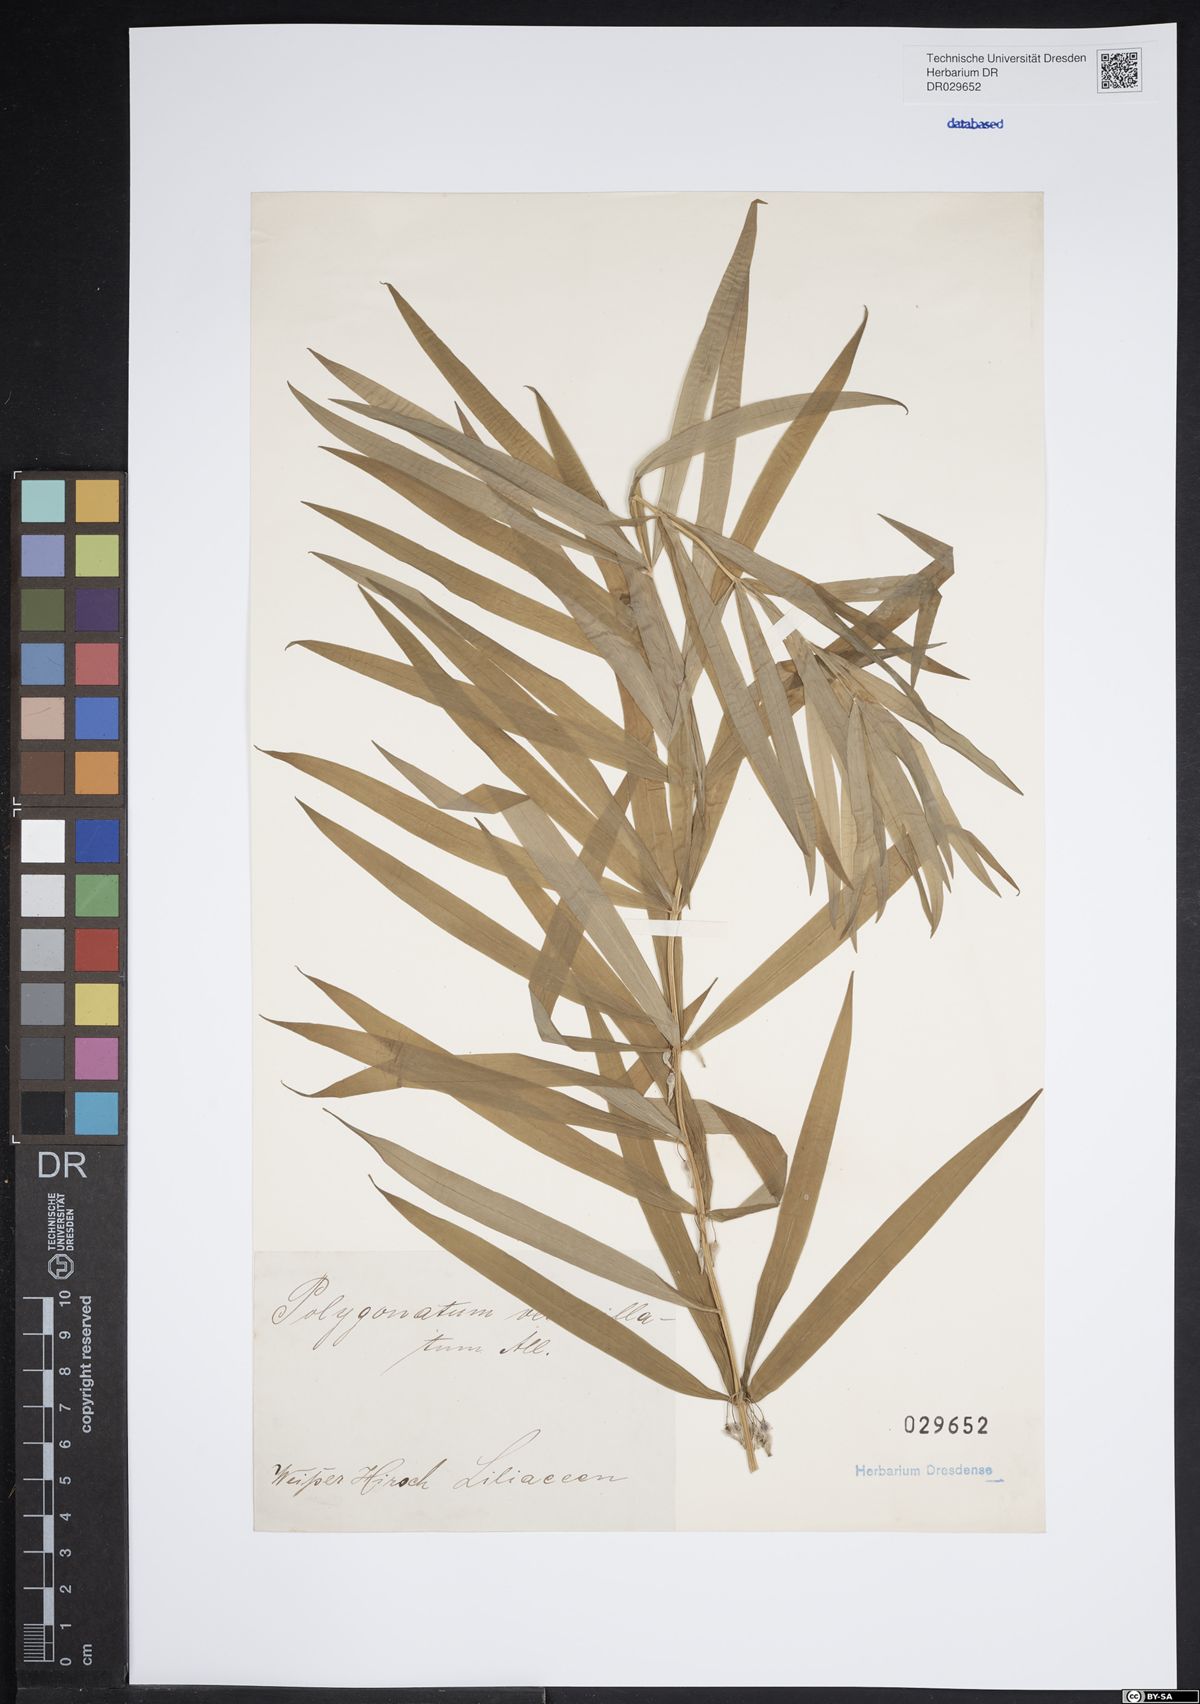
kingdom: Plantae
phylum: Tracheophyta
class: Liliopsida
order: Asparagales
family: Asparagaceae
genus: Polygonatum
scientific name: Polygonatum verticillatum
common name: Whorled solomon's-seal
